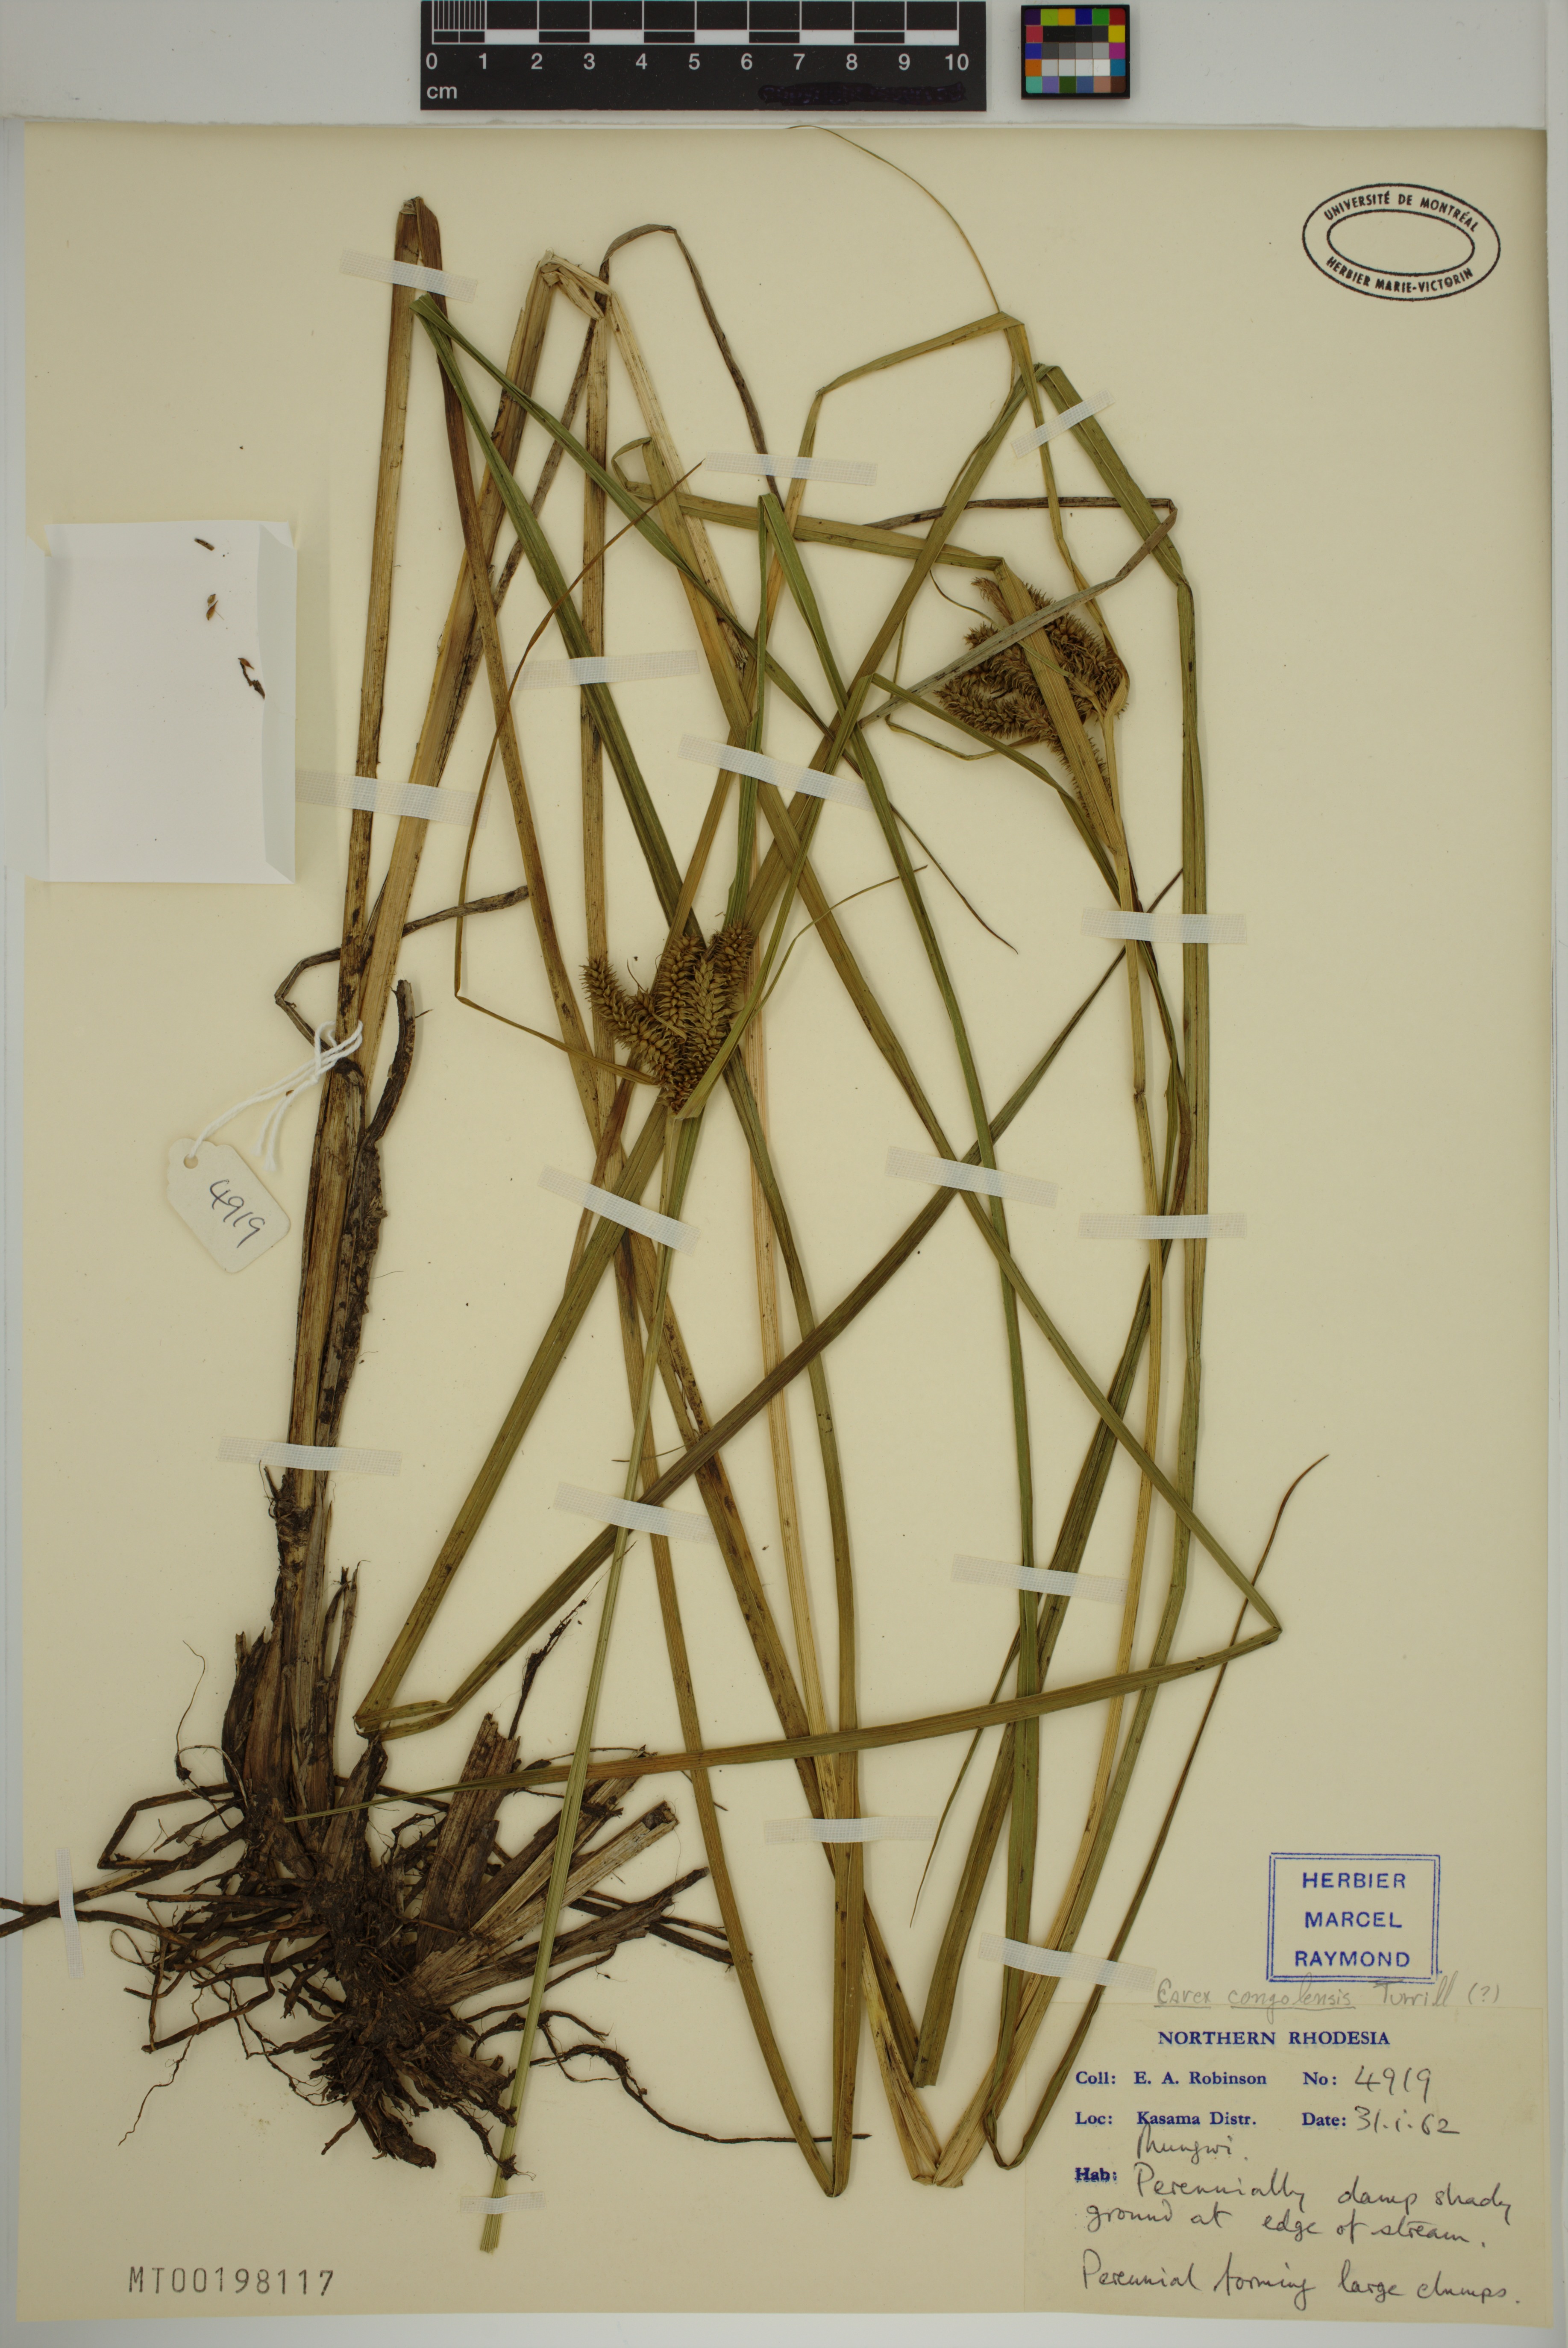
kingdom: Plantae
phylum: Tracheophyta
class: Liliopsida
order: Poales
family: Cyperaceae
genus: Carex
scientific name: Carex cognata
